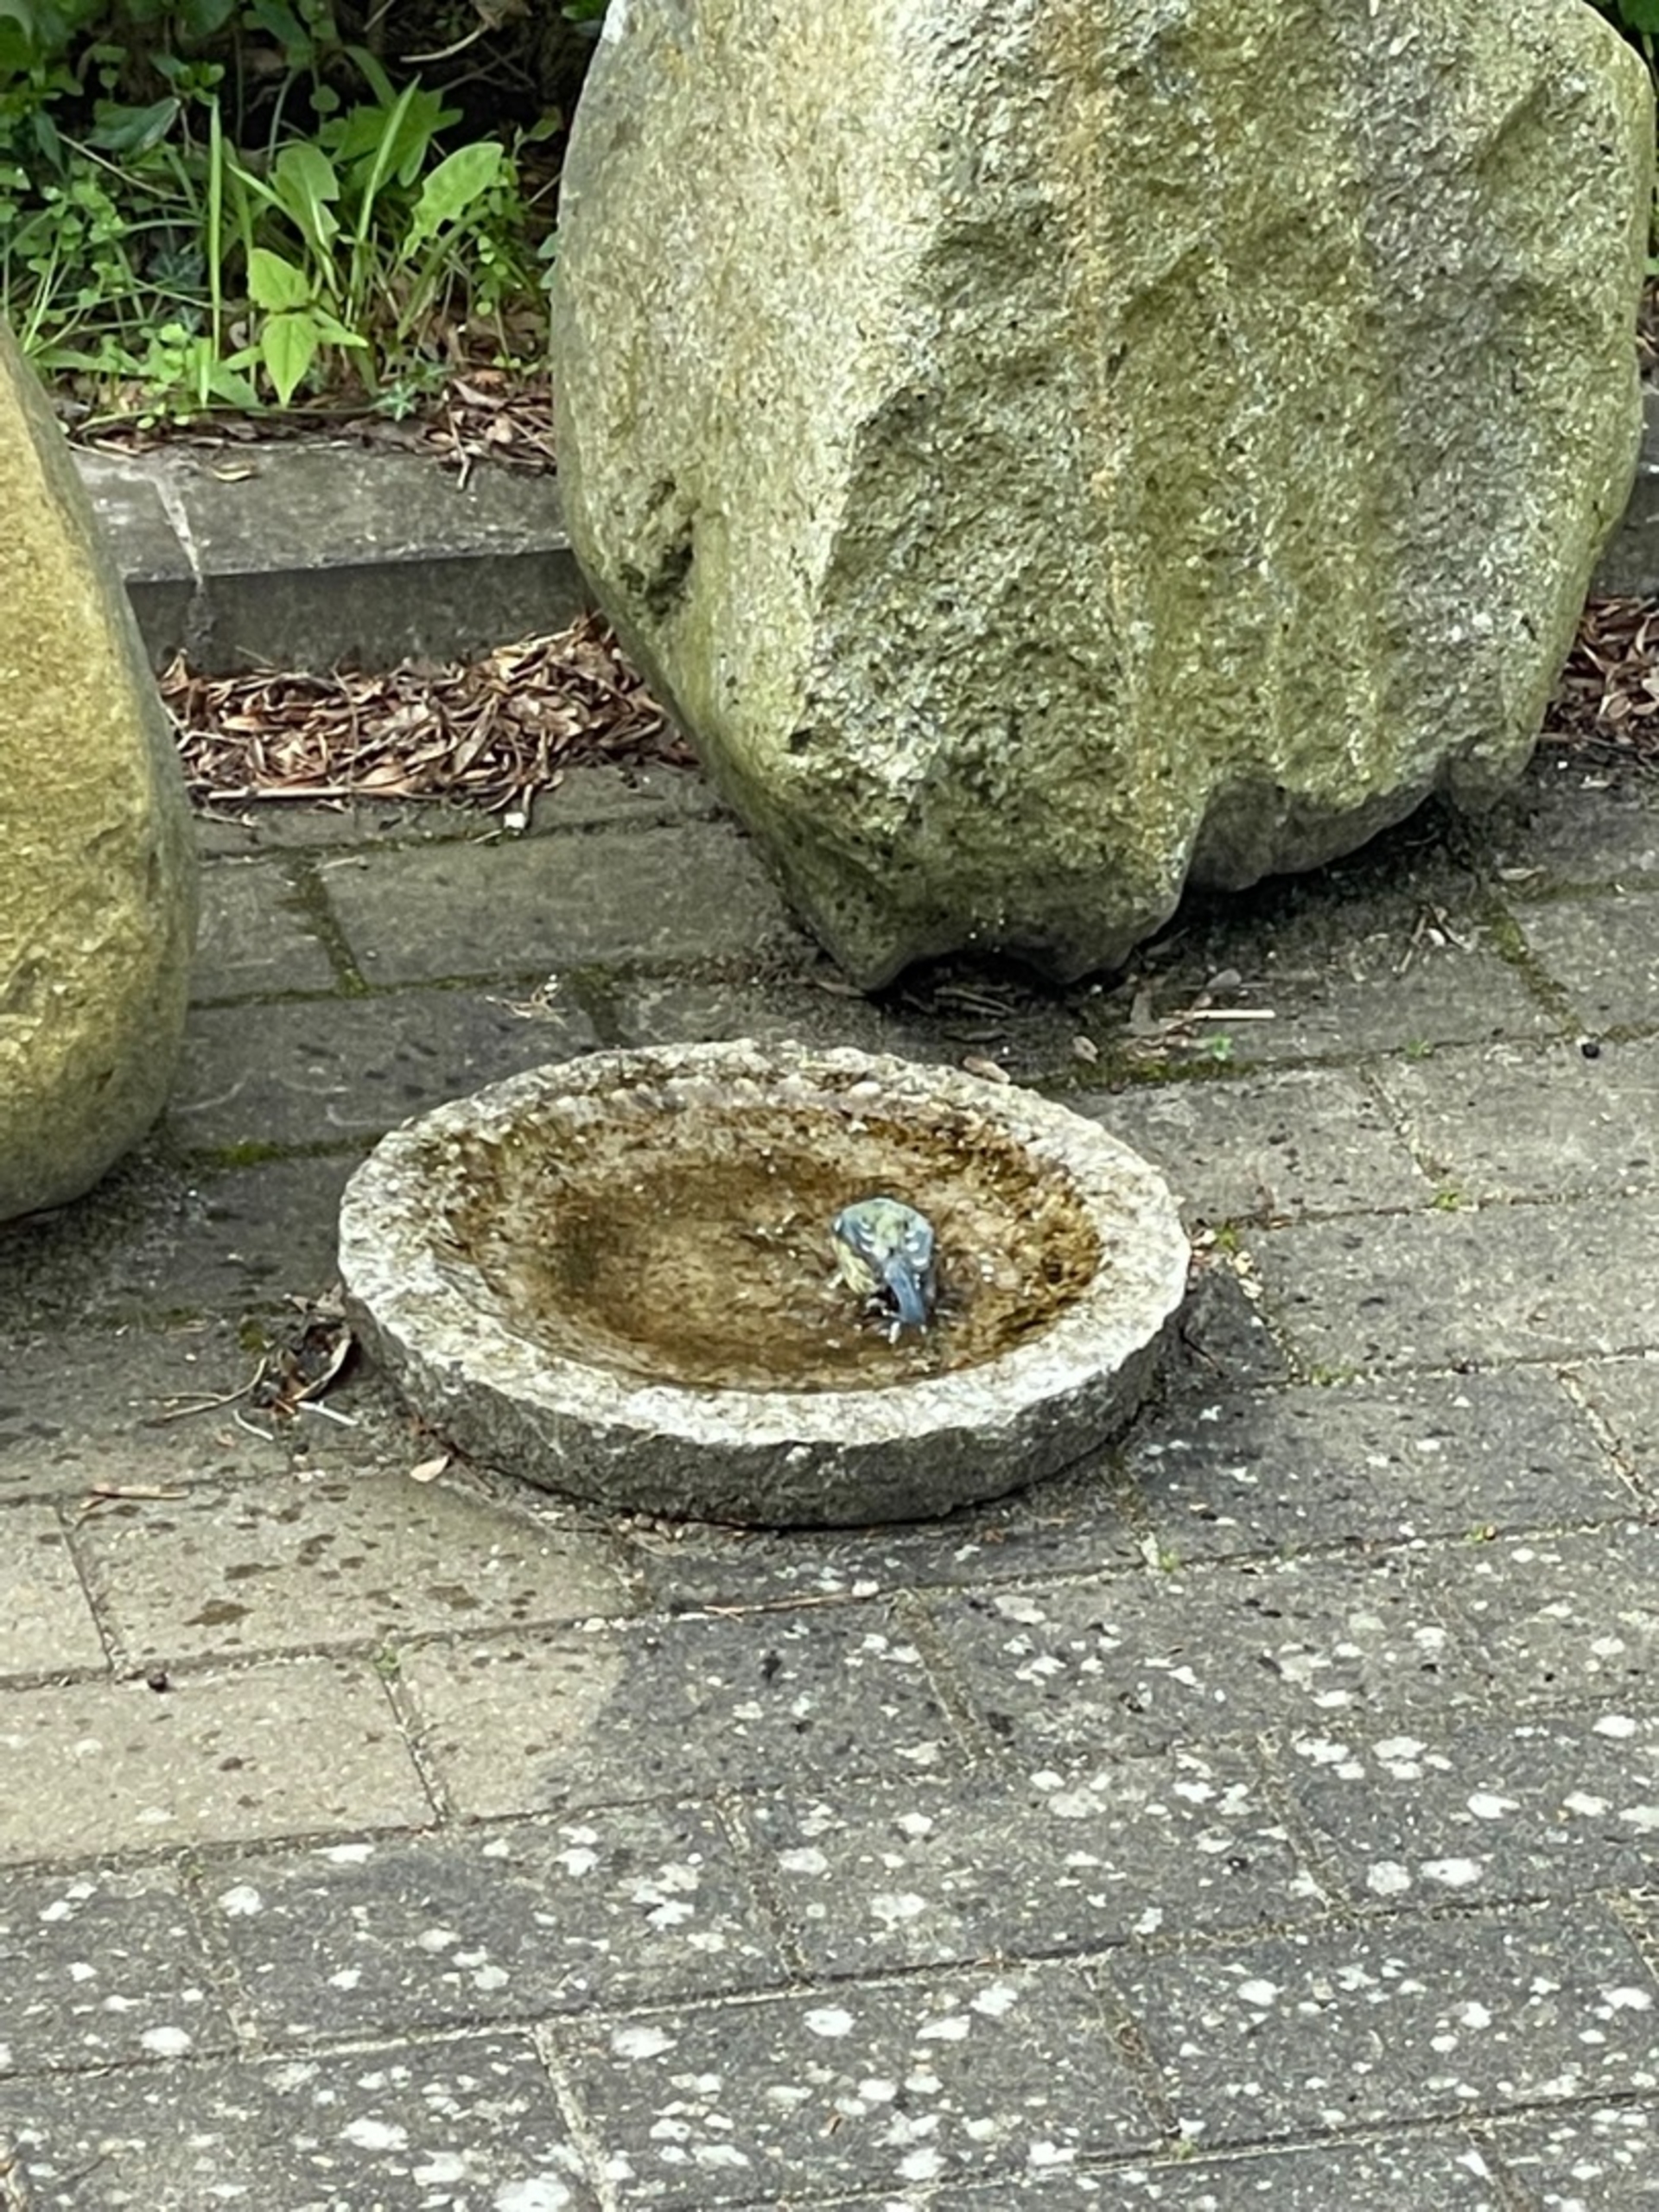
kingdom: Animalia
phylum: Chordata
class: Aves
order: Passeriformes
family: Paridae
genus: Cyanistes
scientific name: Cyanistes caeruleus
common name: Blåmejse
